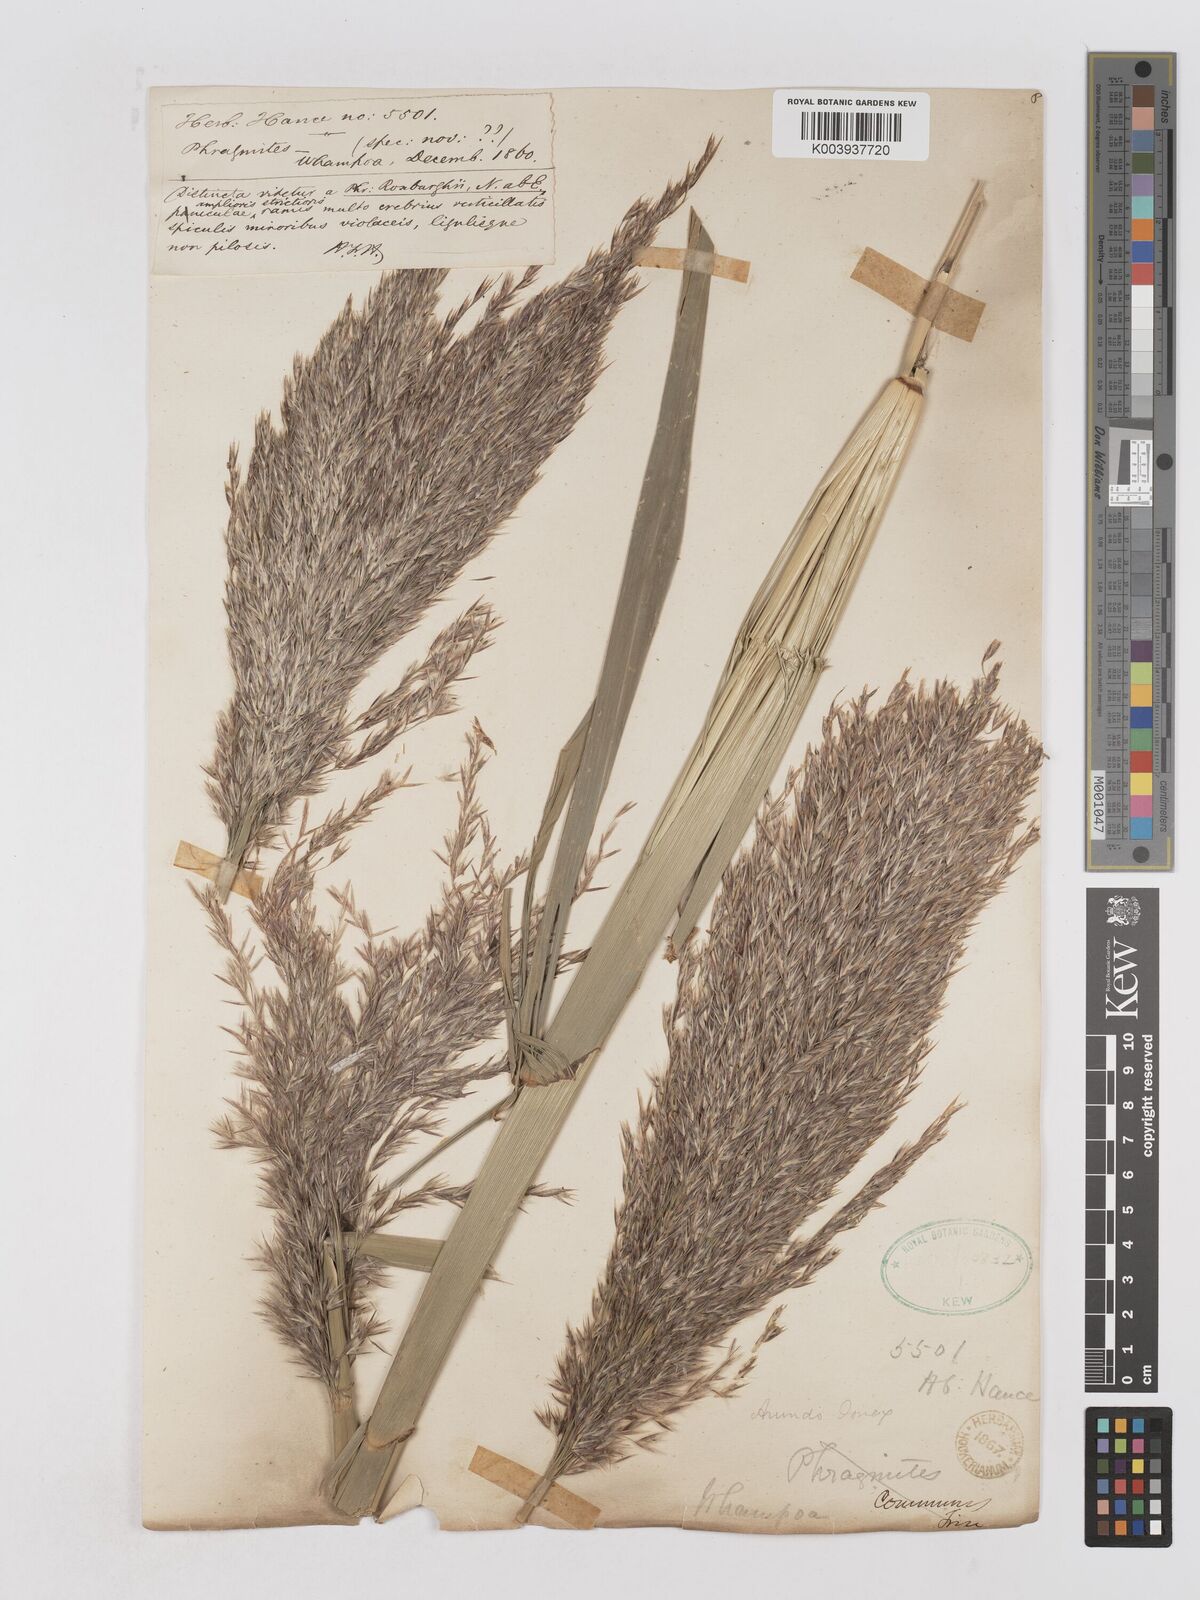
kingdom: Plantae
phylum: Tracheophyta
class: Liliopsida
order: Poales
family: Poaceae
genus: Arundo
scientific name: Arundo donax
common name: Giant reed
